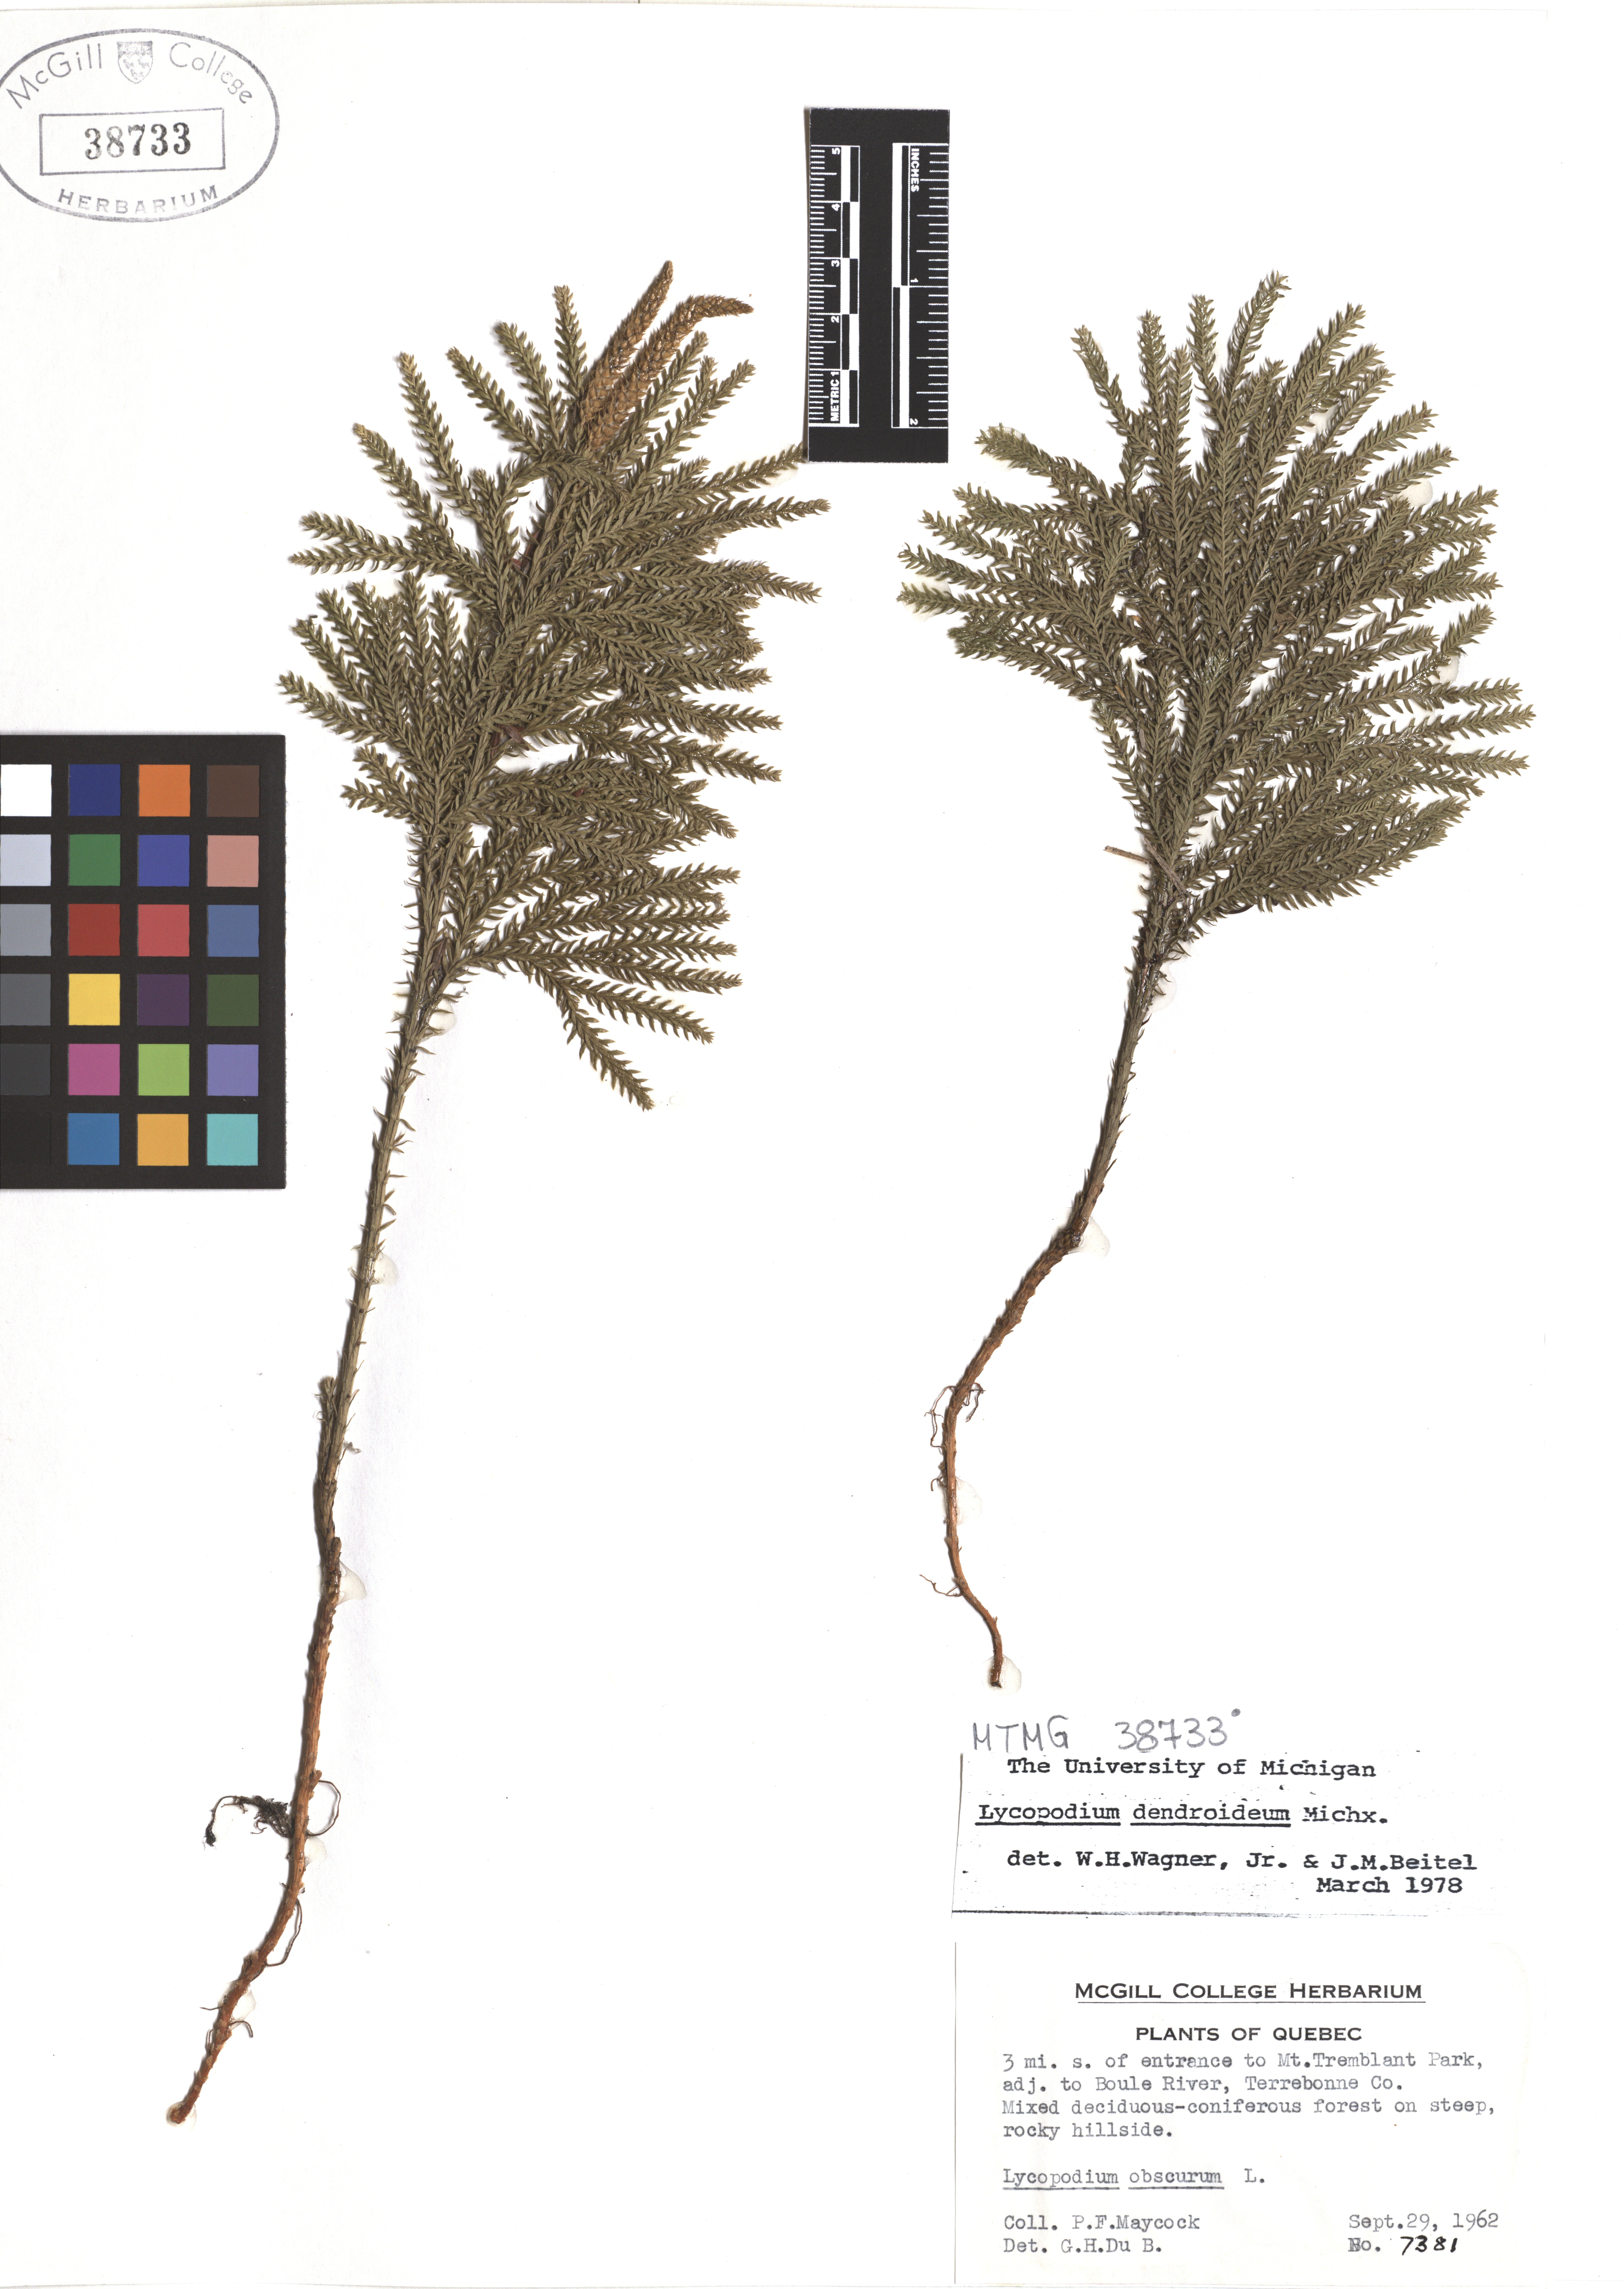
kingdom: Plantae
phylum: Tracheophyta
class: Lycopodiopsida
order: Lycopodiales
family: Lycopodiaceae
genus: Dendrolycopodium
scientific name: Dendrolycopodium dendroideum
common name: Northern tree-clubmoss
